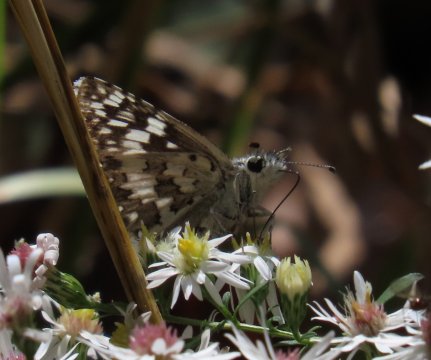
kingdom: Animalia
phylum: Arthropoda
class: Insecta
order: Lepidoptera
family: Hesperiidae
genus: Pyrgus
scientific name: Pyrgus communis
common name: White Checkered-Skipper
